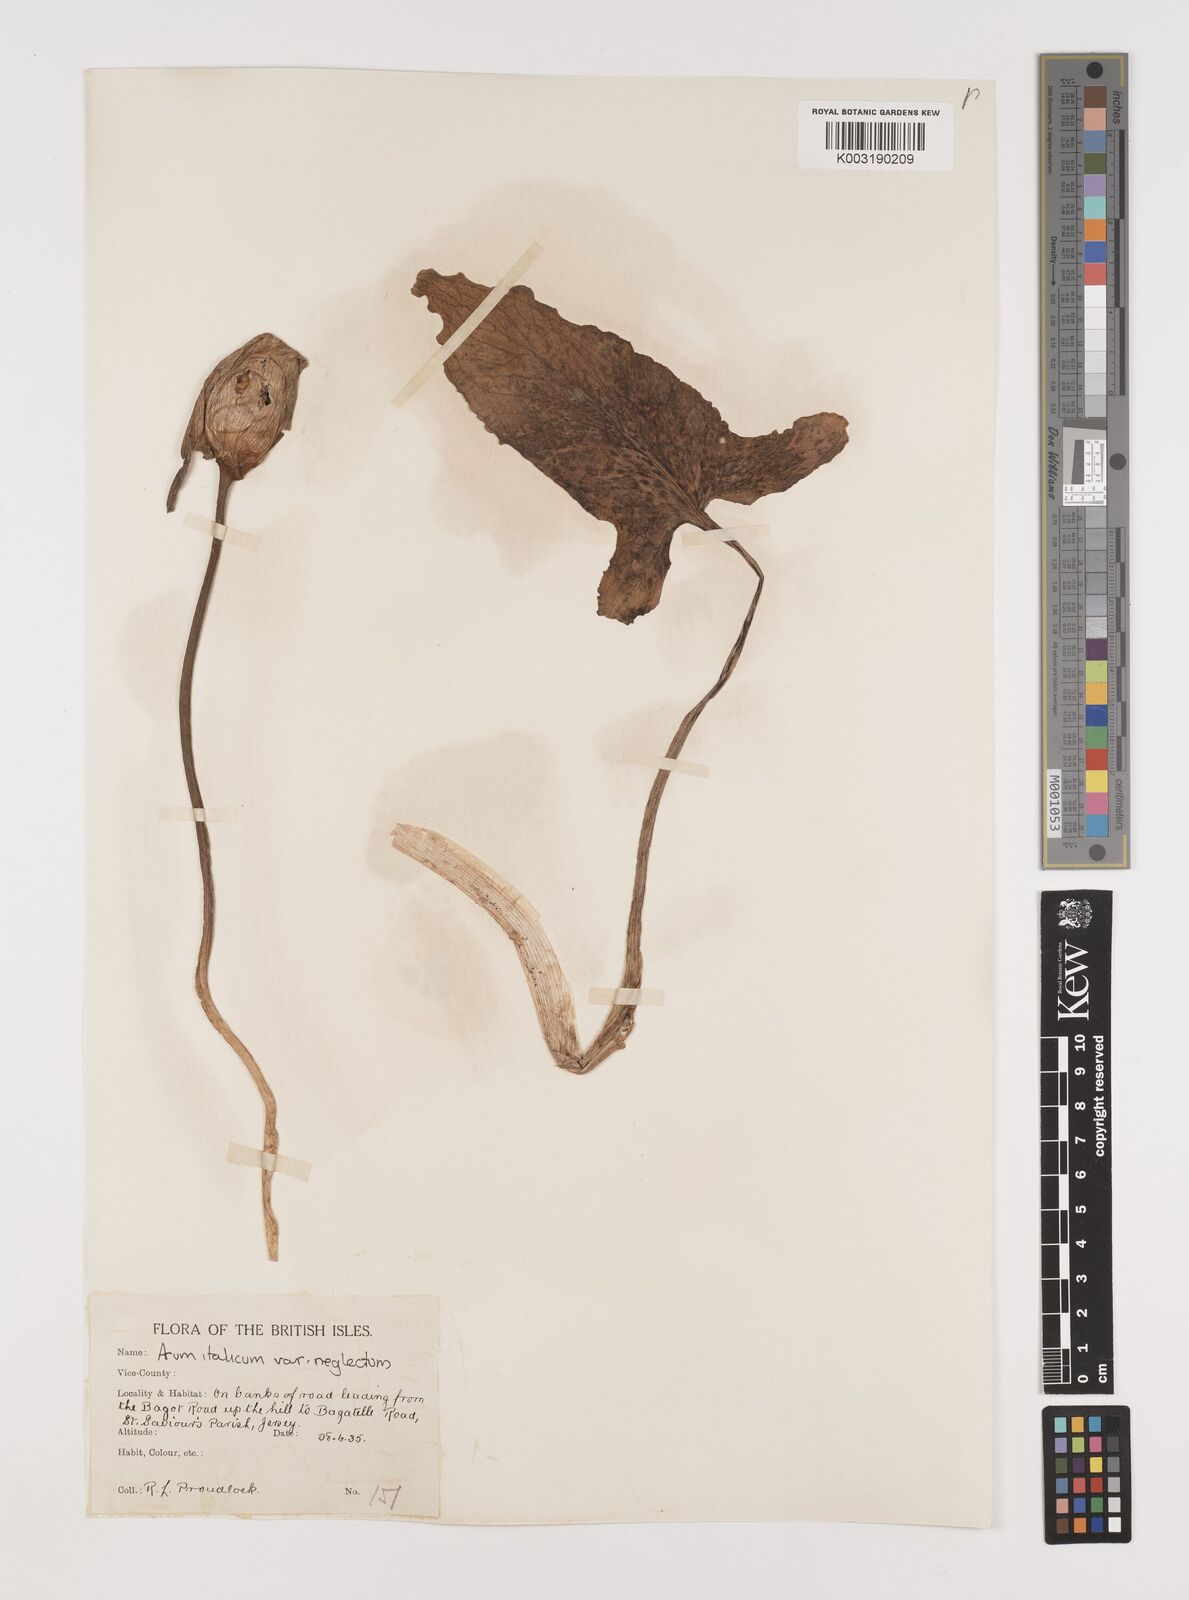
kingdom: Plantae
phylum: Tracheophyta
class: Liliopsida
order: Alismatales
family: Araceae
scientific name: Araceae
